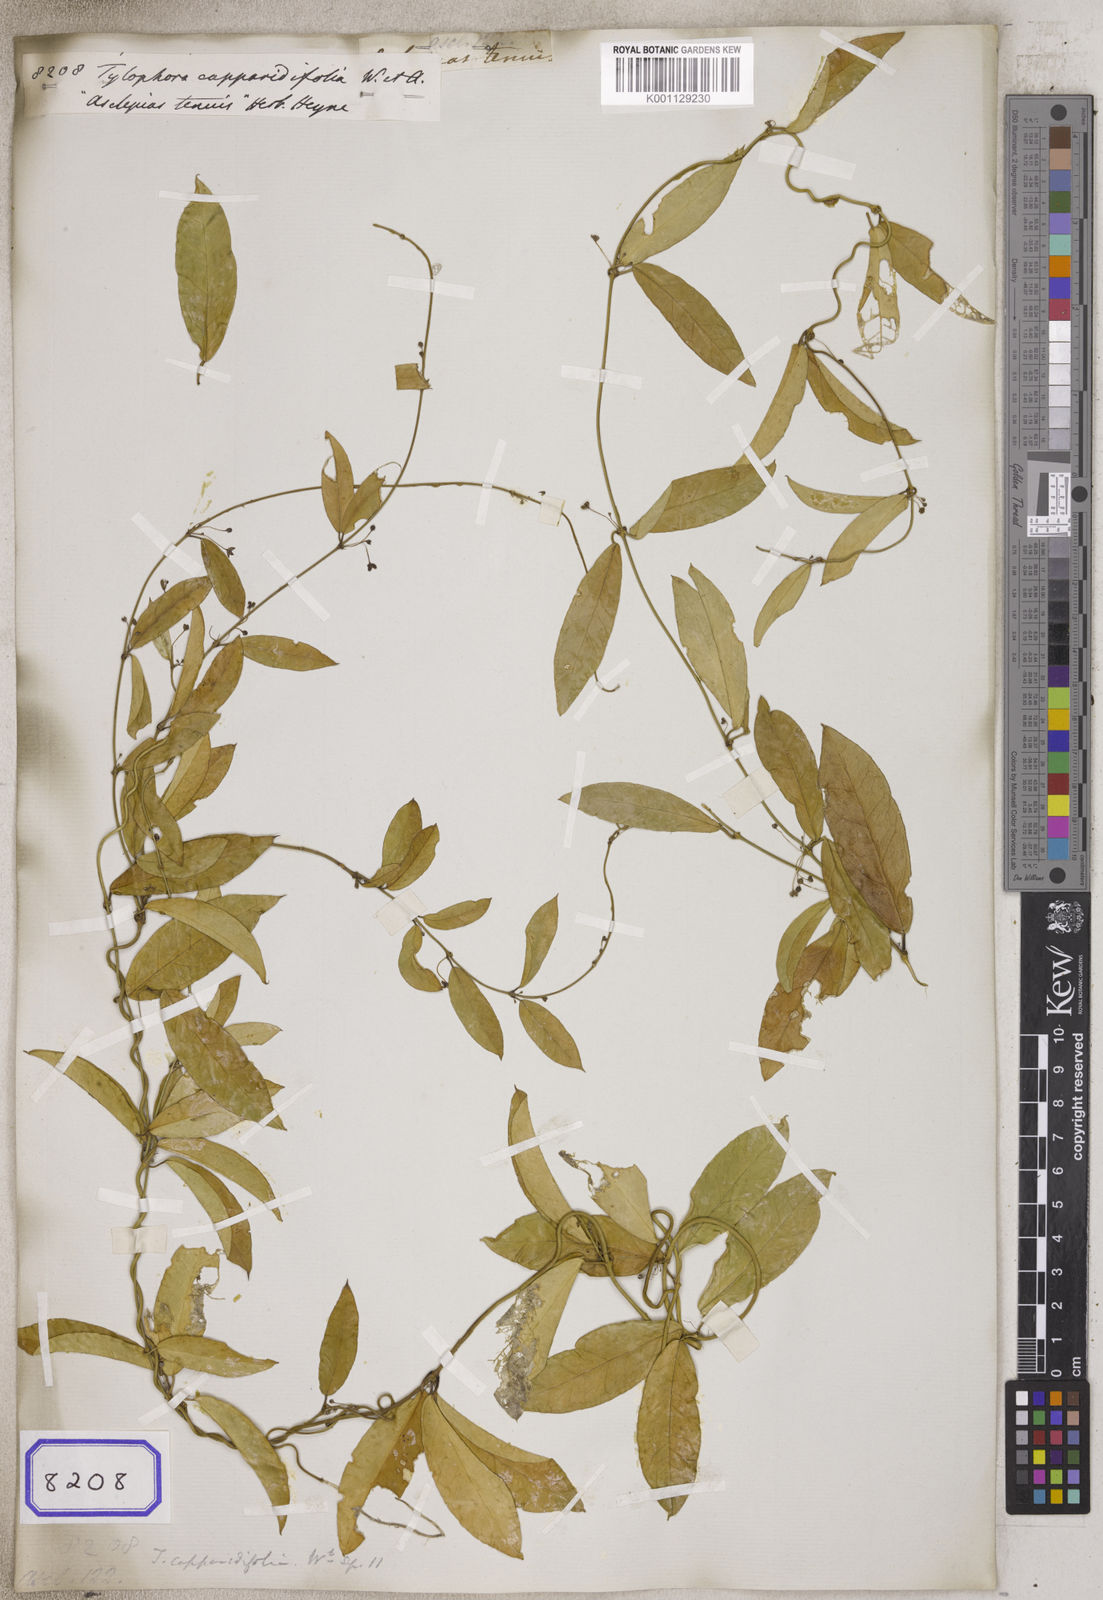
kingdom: Plantae
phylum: Tracheophyta
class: Magnoliopsida
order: Gentianales
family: Apocynaceae
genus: Vincetoxicum
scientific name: Vincetoxicum capparidifolium
